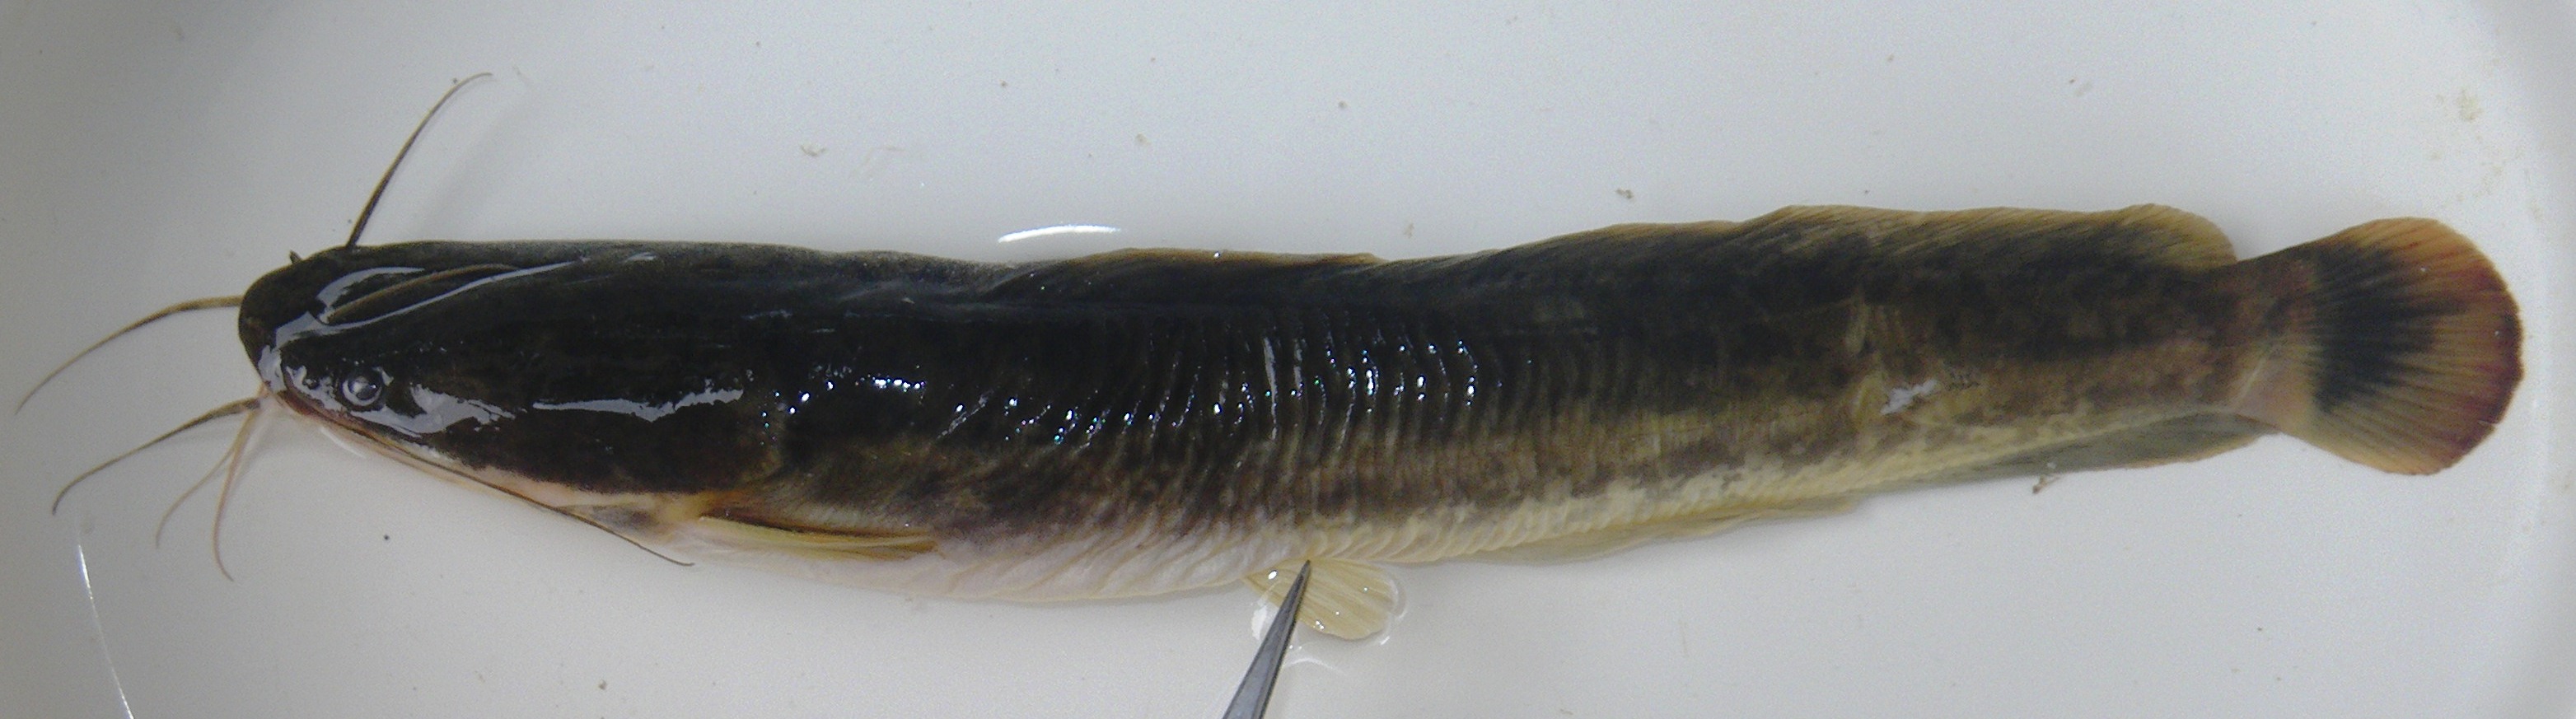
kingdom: Animalia
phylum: Chordata
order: Siluriformes
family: Clariidae
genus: Clarias
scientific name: Clarias gariepinus
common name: African catfish
